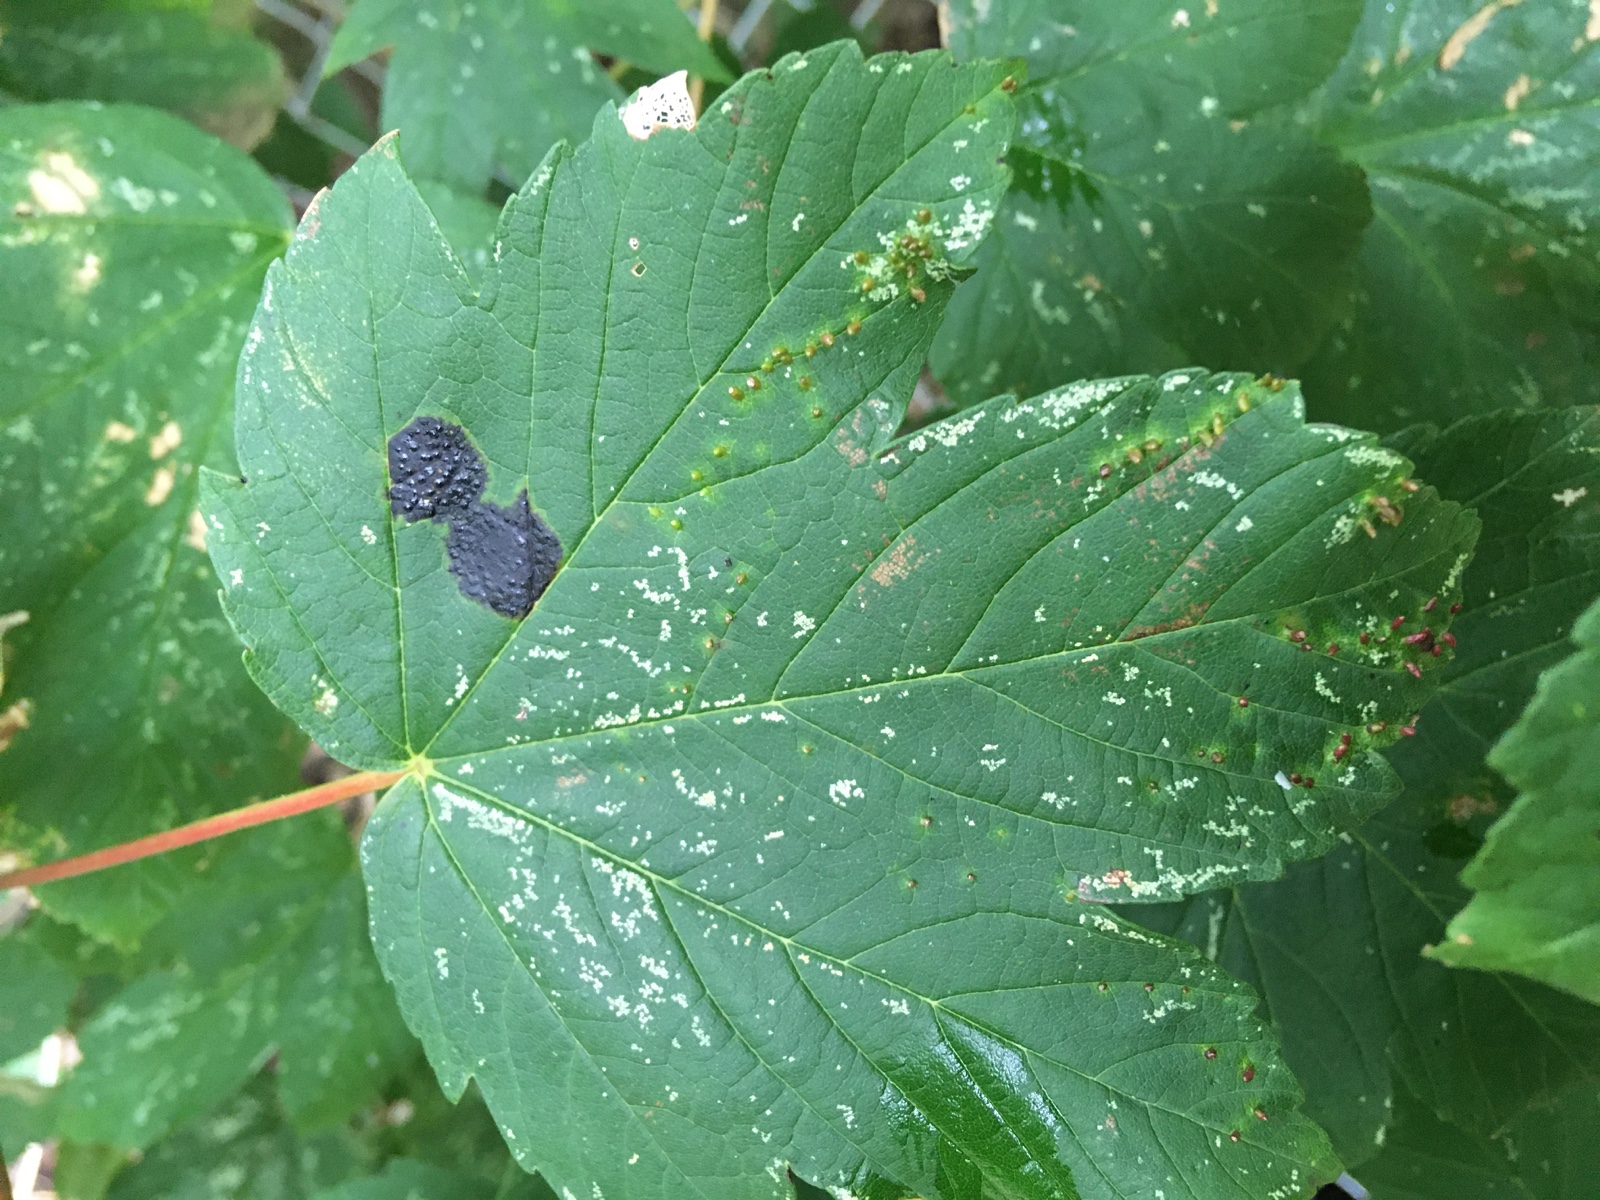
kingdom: Fungi
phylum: Ascomycota
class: Leotiomycetes
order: Rhytismatales
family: Rhytismataceae
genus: Rhytisma
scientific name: Rhytisma acerinum
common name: ahorn-rynkeplet
